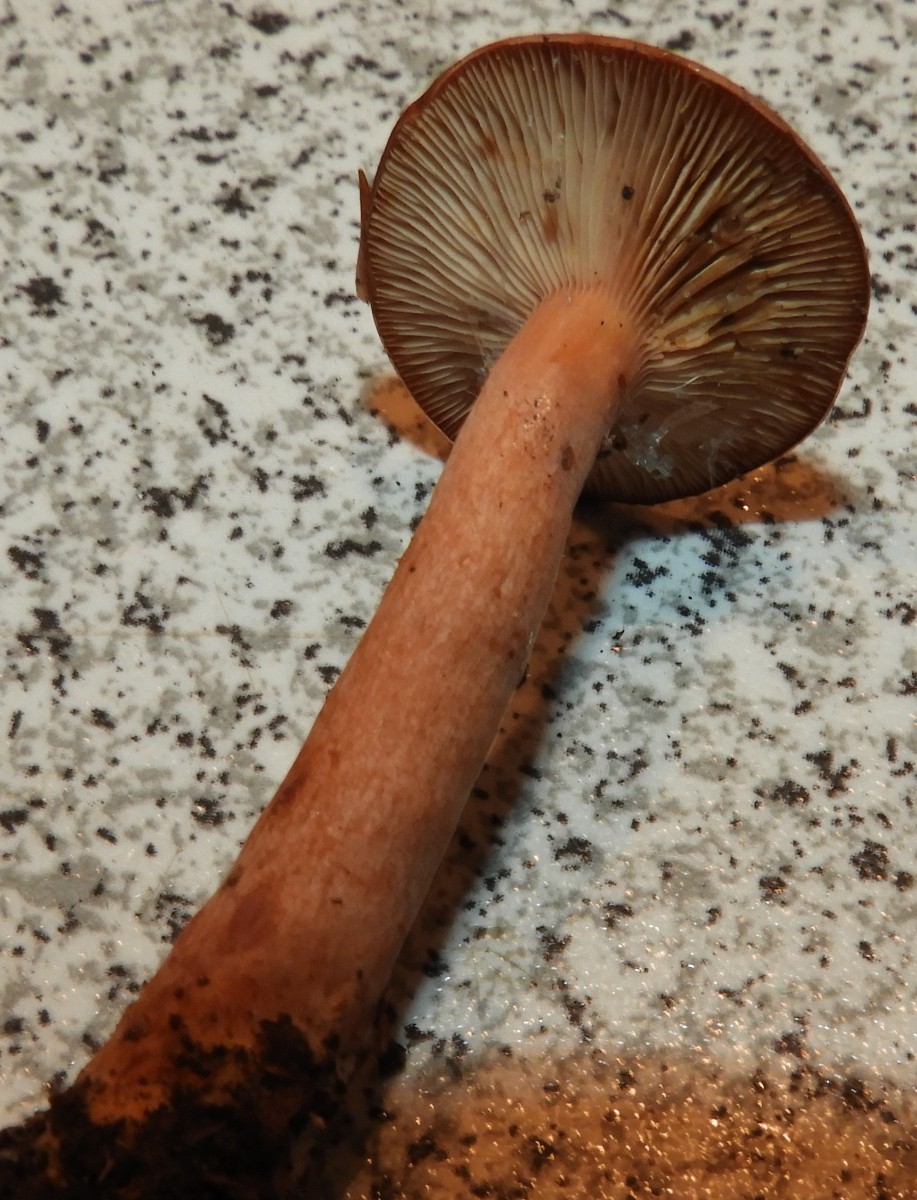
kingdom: Fungi
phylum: Basidiomycota
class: Agaricomycetes
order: Russulales
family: Russulaceae
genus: Lactarius
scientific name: Lactarius tabidus
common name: rynket mælkehat
